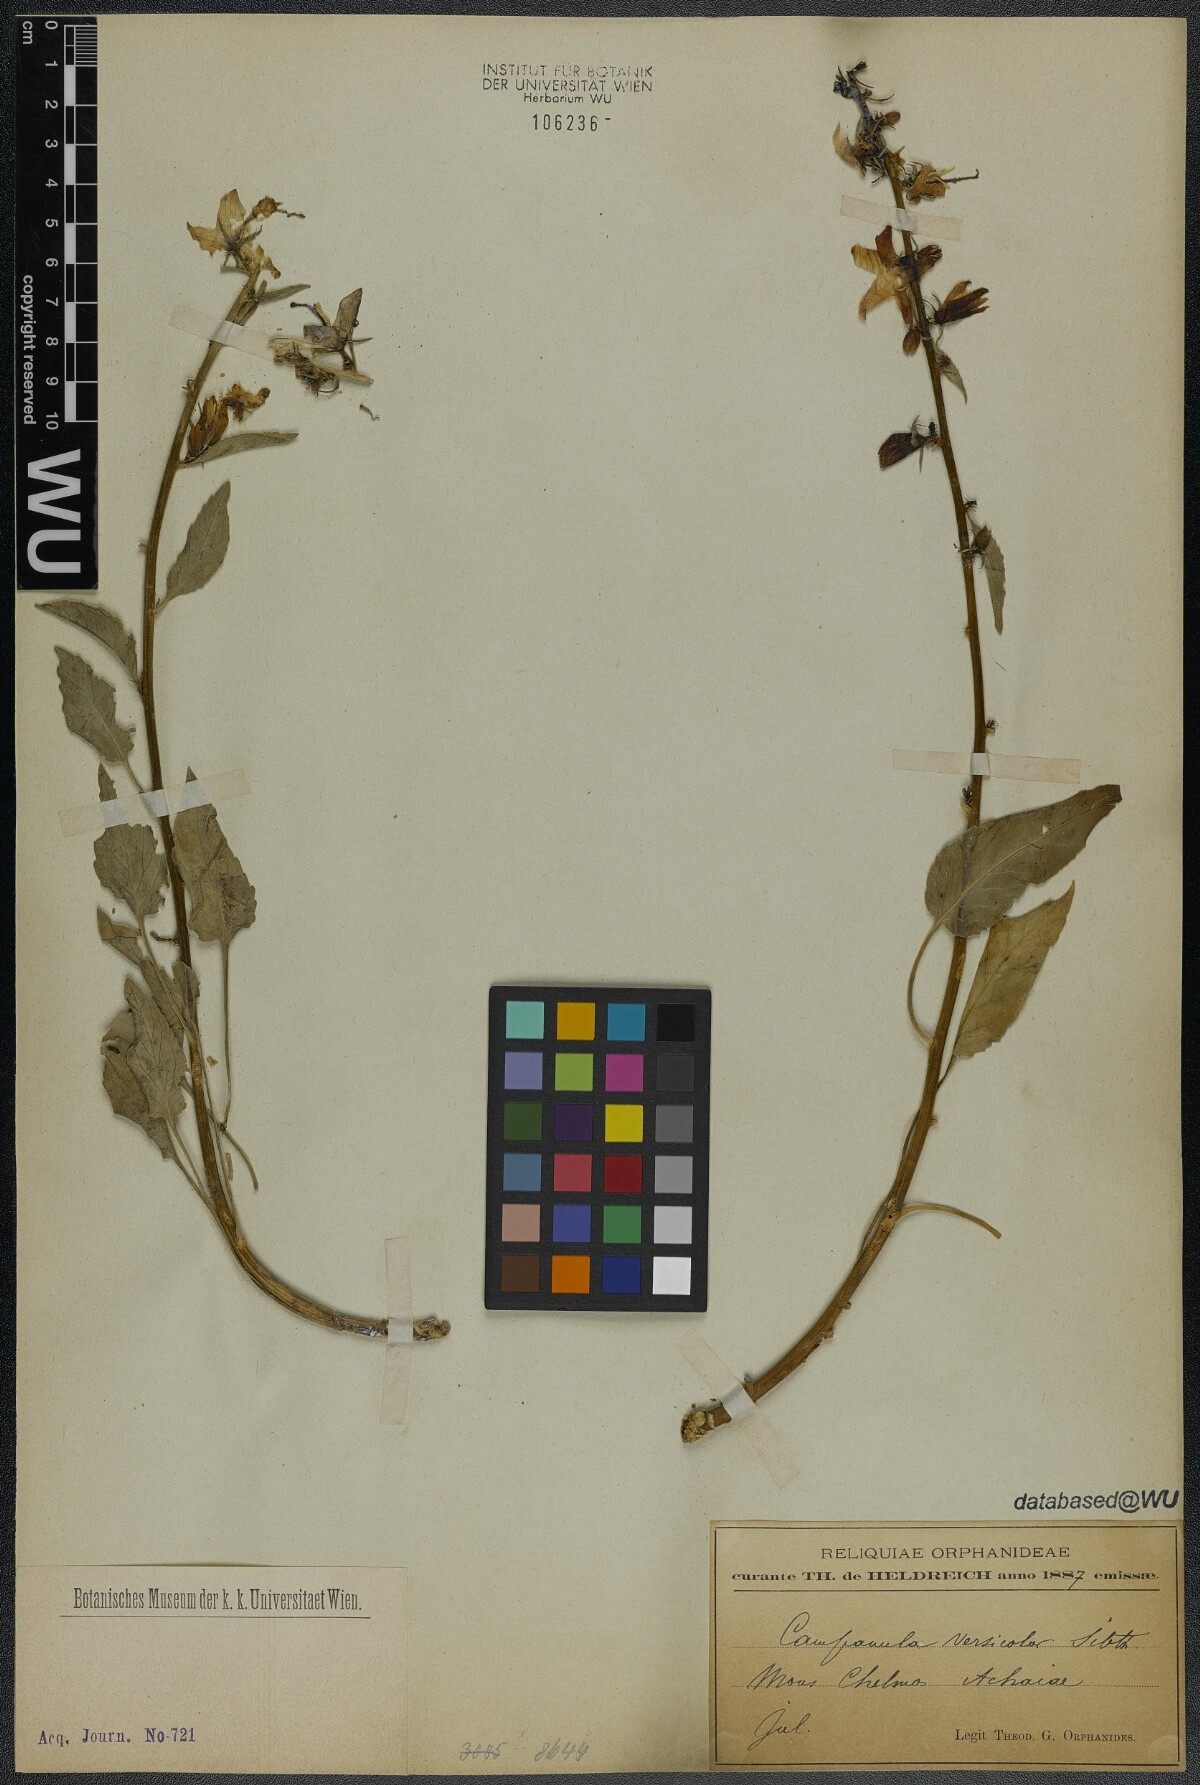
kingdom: Plantae
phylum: Tracheophyta
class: Magnoliopsida
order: Asterales
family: Campanulaceae
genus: Campanula
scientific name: Campanula versicolor
